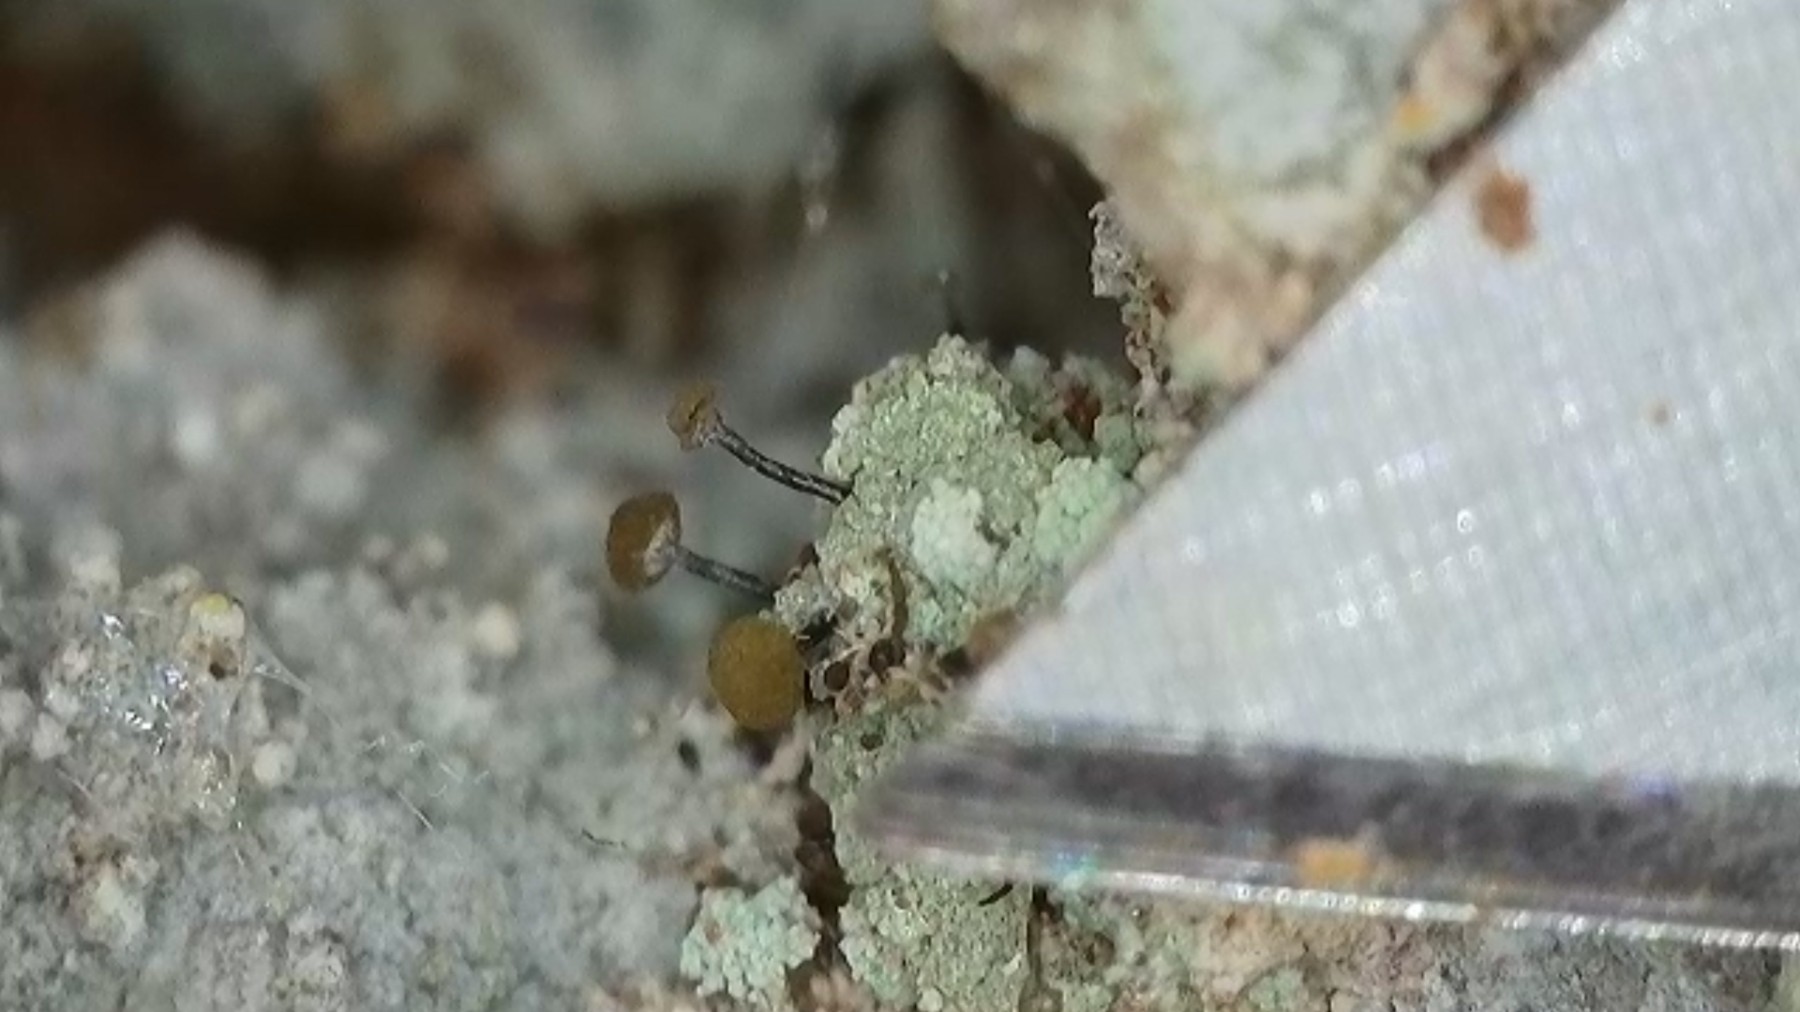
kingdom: Fungi
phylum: Ascomycota
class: Coniocybomycetes
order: Coniocybales
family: Coniocybaceae
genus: Chaenotheca
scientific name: Chaenotheca trichialis
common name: grå knappenålslav
